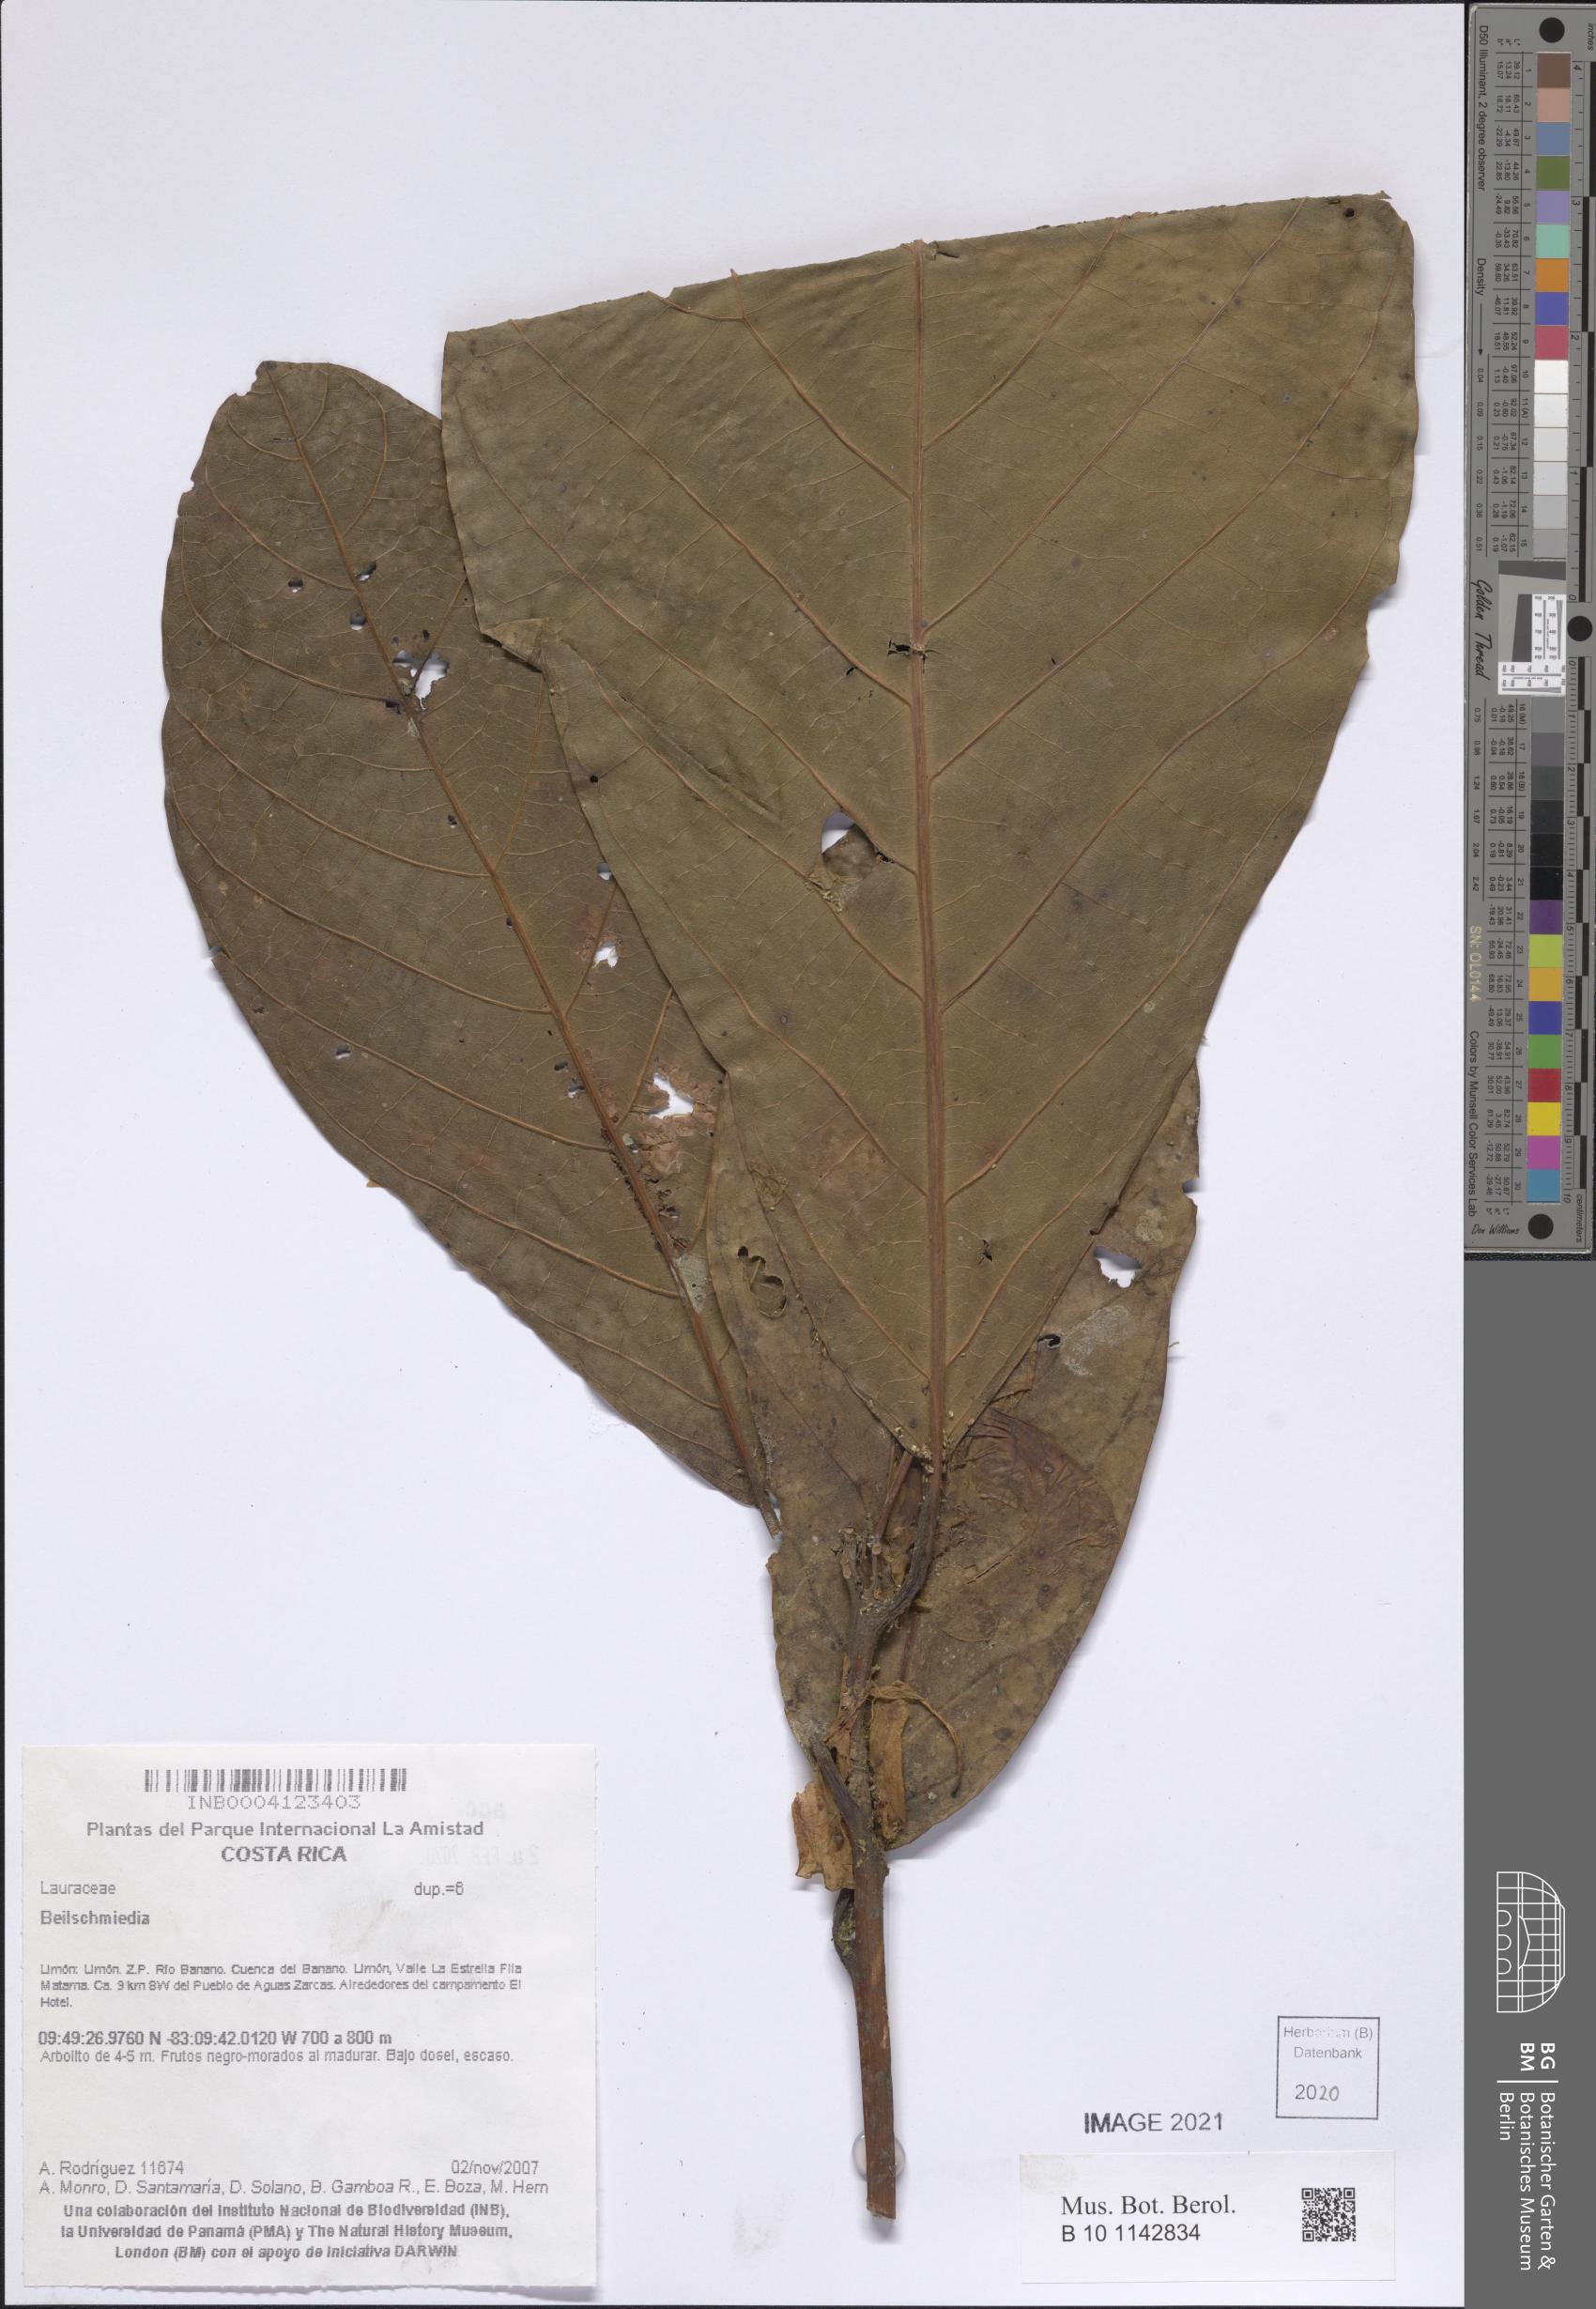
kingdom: Plantae
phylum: Tracheophyta
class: Magnoliopsida
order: Laurales
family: Lauraceae
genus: Beilschmiedia
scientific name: Beilschmiedia
